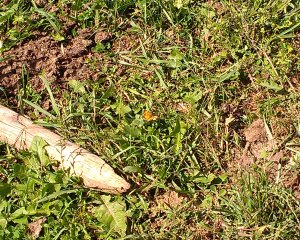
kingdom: Animalia
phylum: Arthropoda
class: Insecta
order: Lepidoptera
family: Nymphalidae
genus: Phyciodes
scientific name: Phyciodes tharos
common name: Northern Crescent
